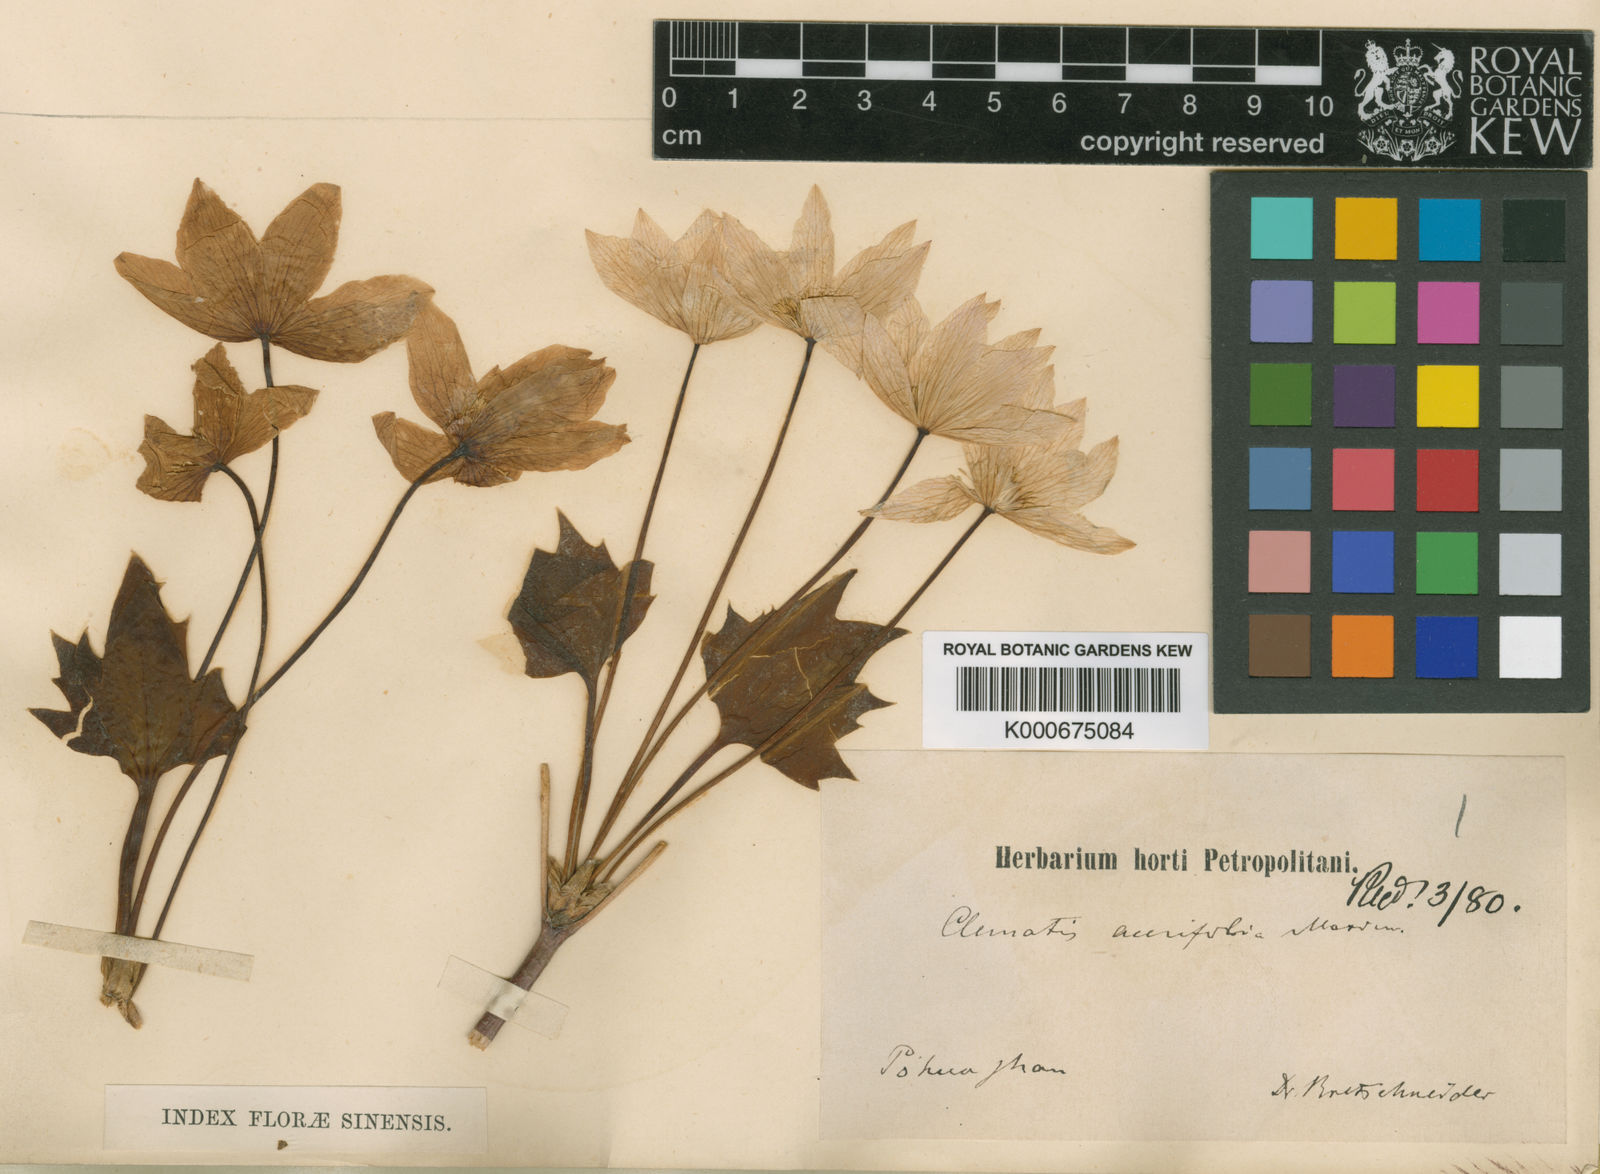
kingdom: Plantae
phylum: Tracheophyta
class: Magnoliopsida
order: Ranunculales
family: Ranunculaceae
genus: Clematis
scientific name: Clematis acerifolia
